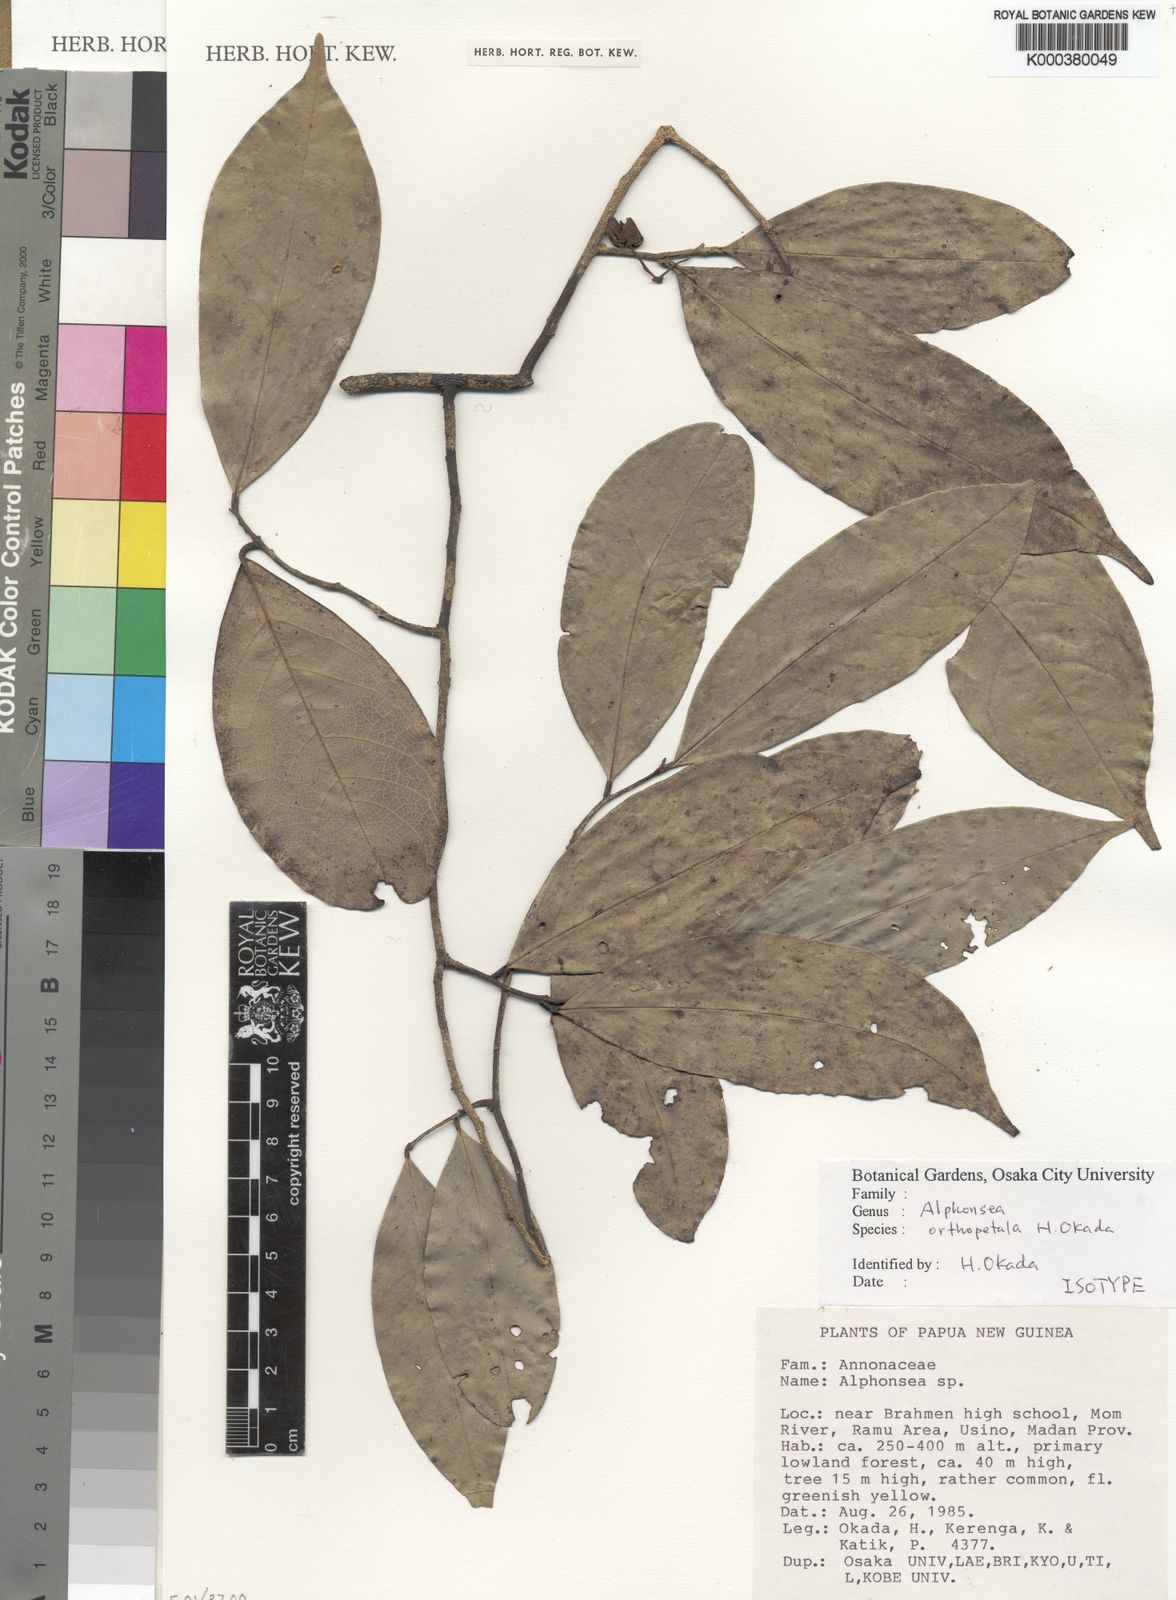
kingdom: Plantae
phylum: Tracheophyta
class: Magnoliopsida
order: Magnoliales
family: Annonaceae
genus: Alphonsea
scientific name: Alphonsea orthopetala
